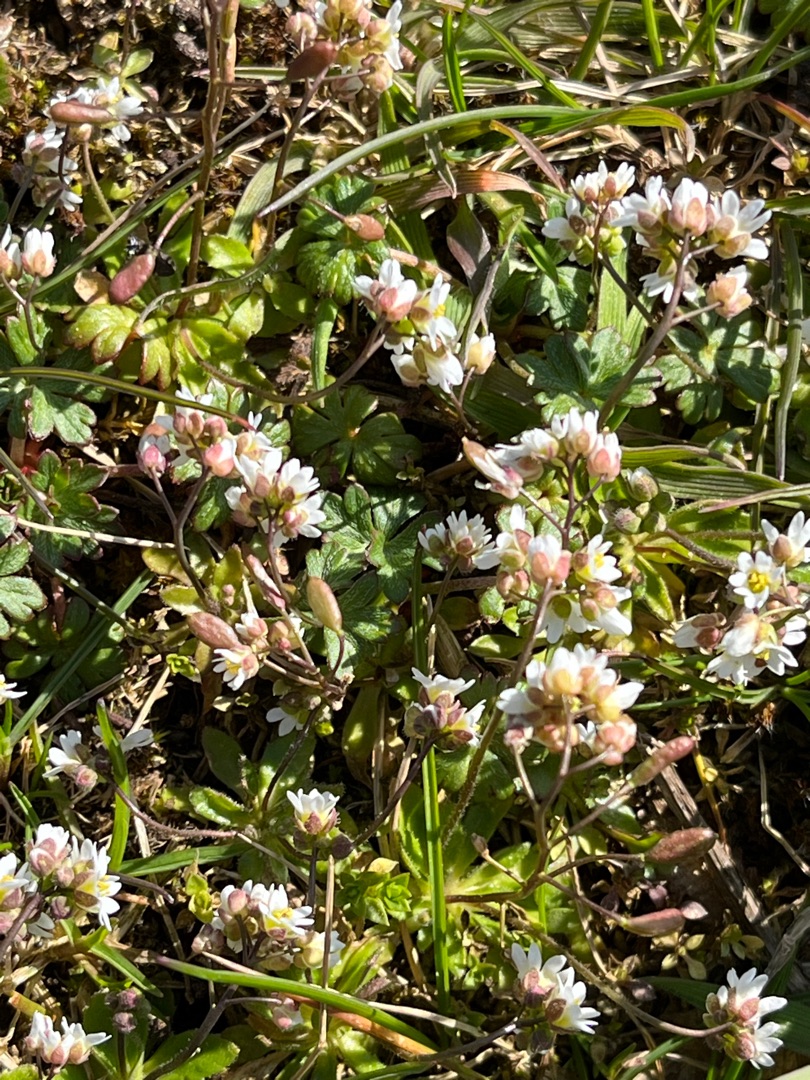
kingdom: Plantae
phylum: Tracheophyta
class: Magnoliopsida
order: Brassicales
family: Brassicaceae
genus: Draba
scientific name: Draba verna
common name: Vår-gæslingeblomst
